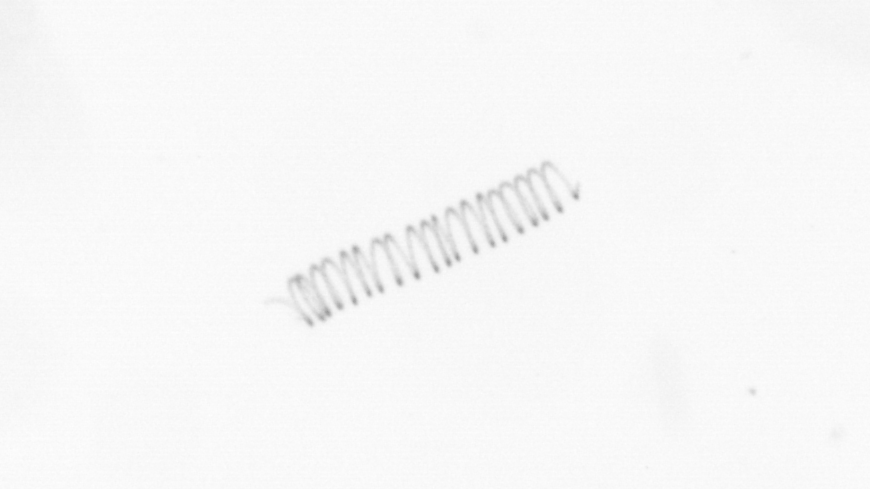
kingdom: Chromista
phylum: Ochrophyta
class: Bacillariophyceae
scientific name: Bacillariophyceae
